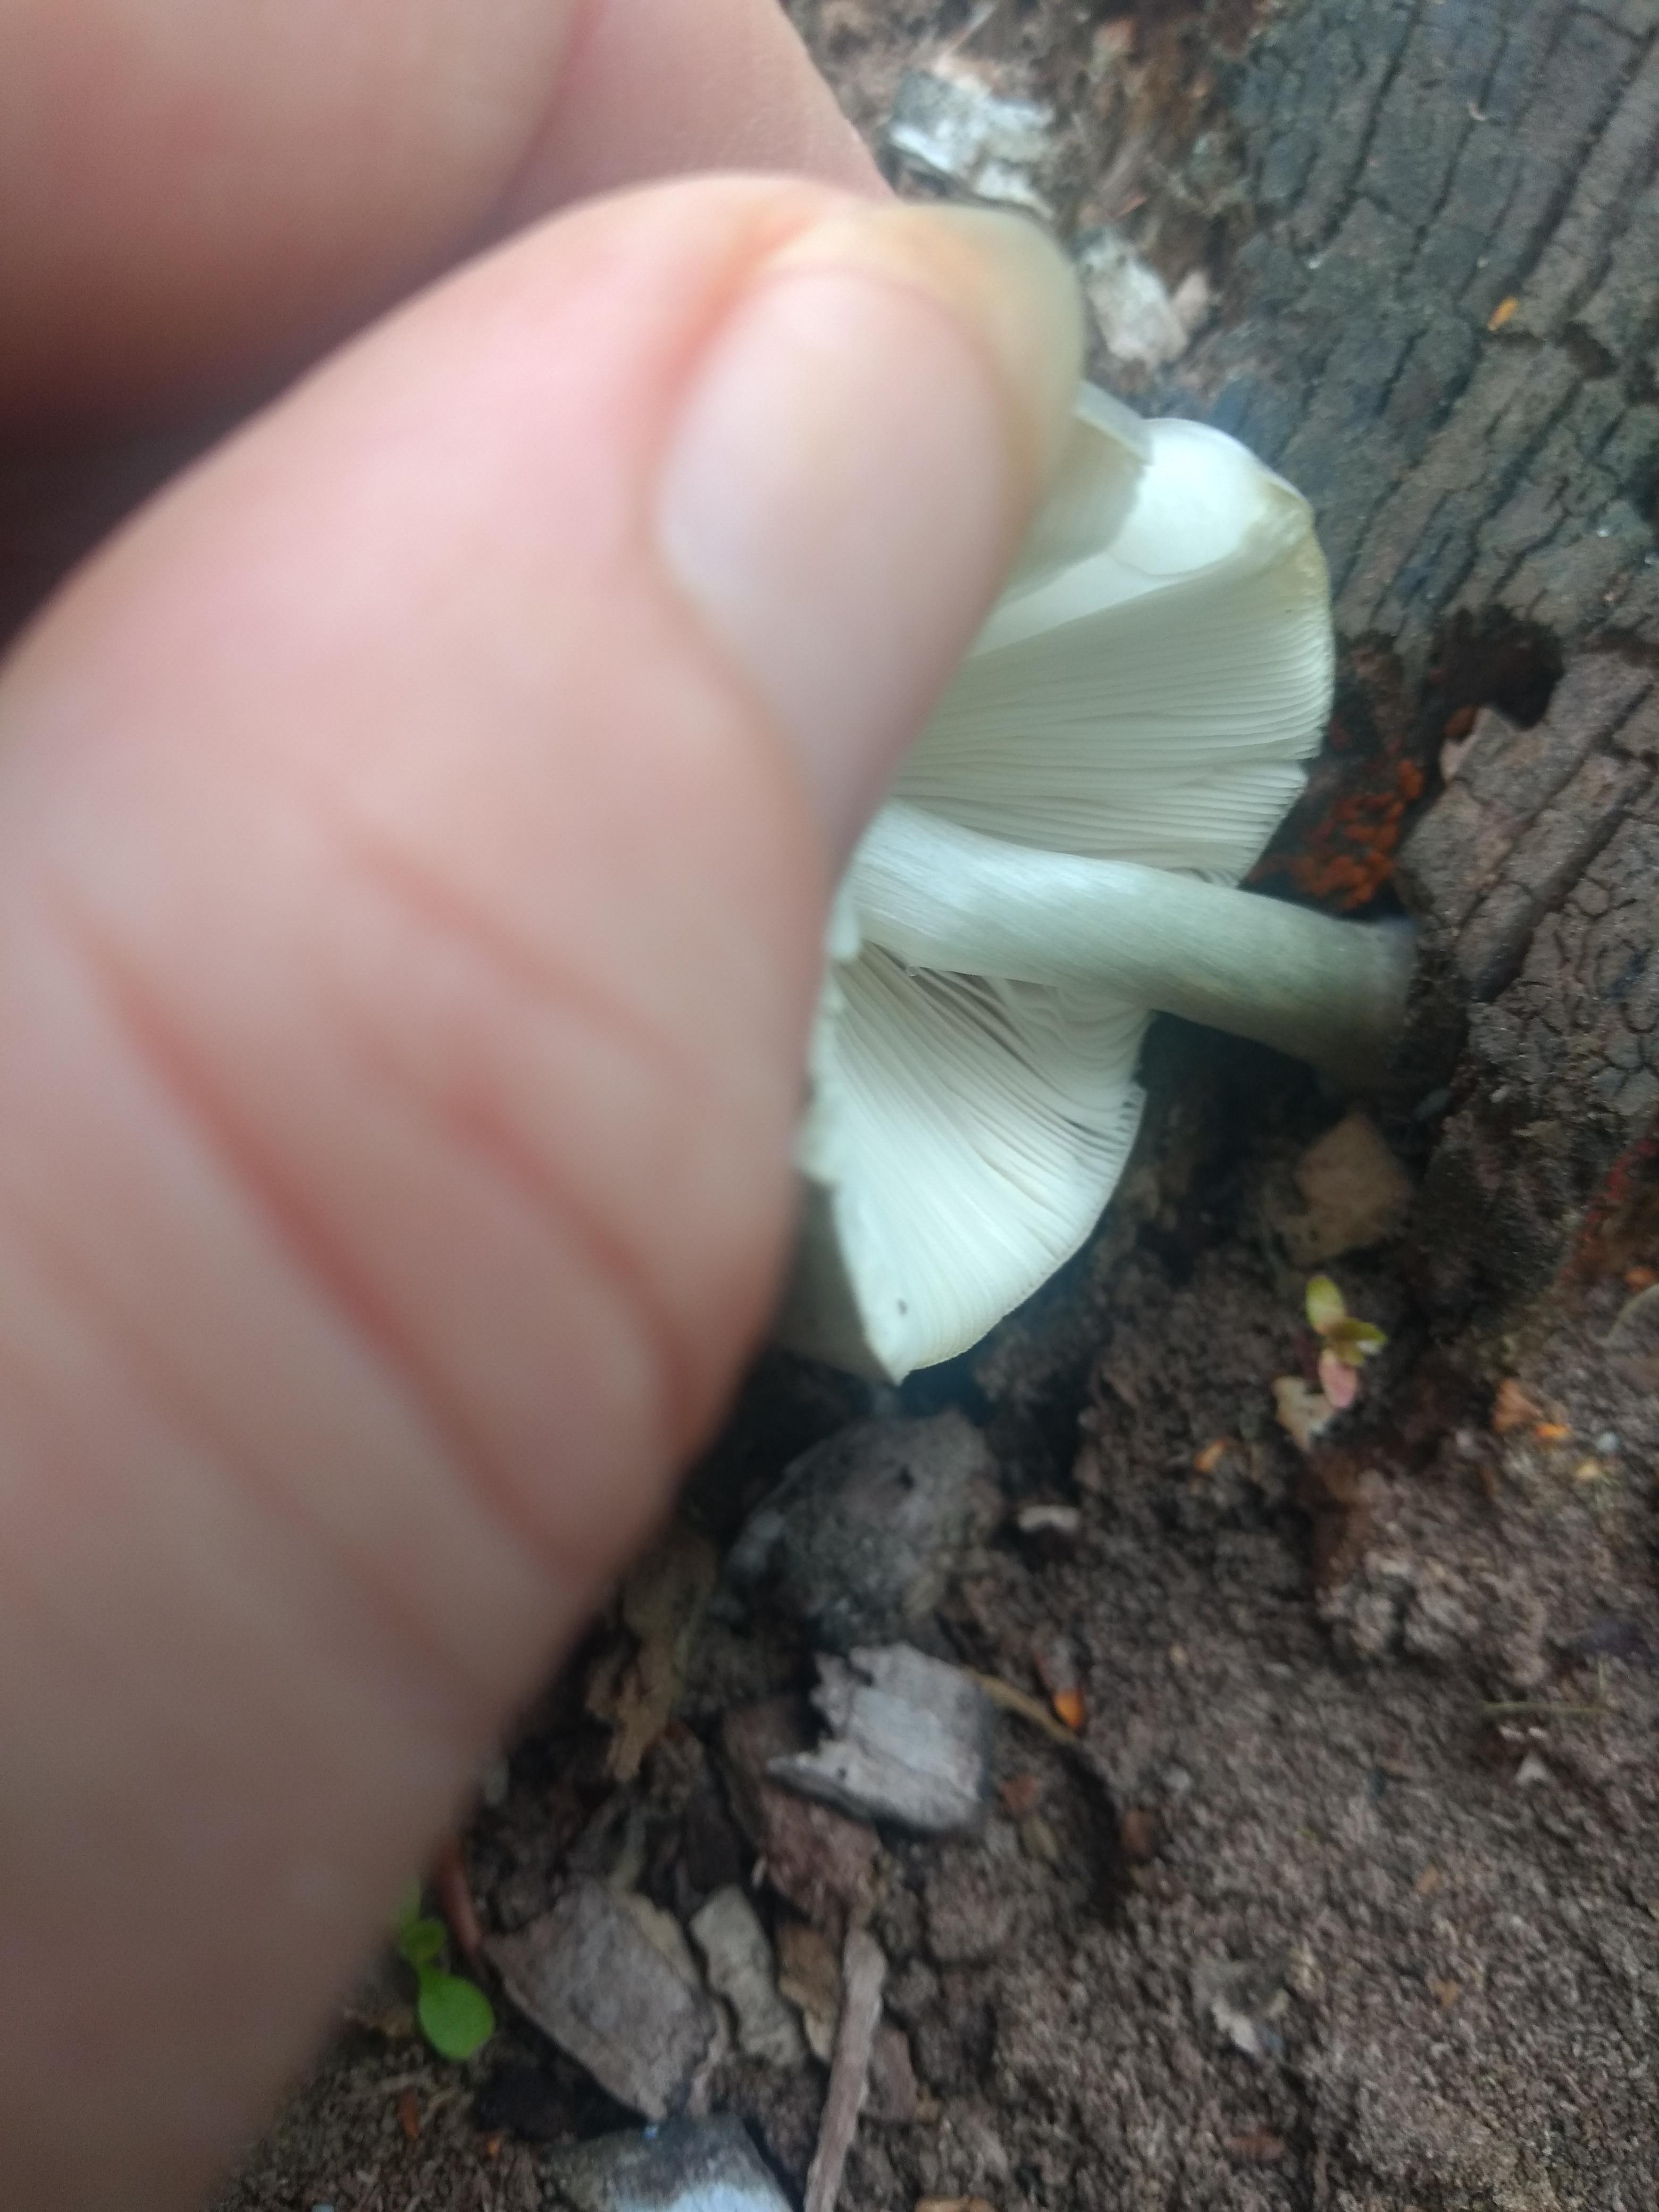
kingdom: Fungi
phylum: Basidiomycota
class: Agaricomycetes
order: Agaricales
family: Pluteaceae
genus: Pluteus
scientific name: Pluteus salicinus
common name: stiv skærmhat
